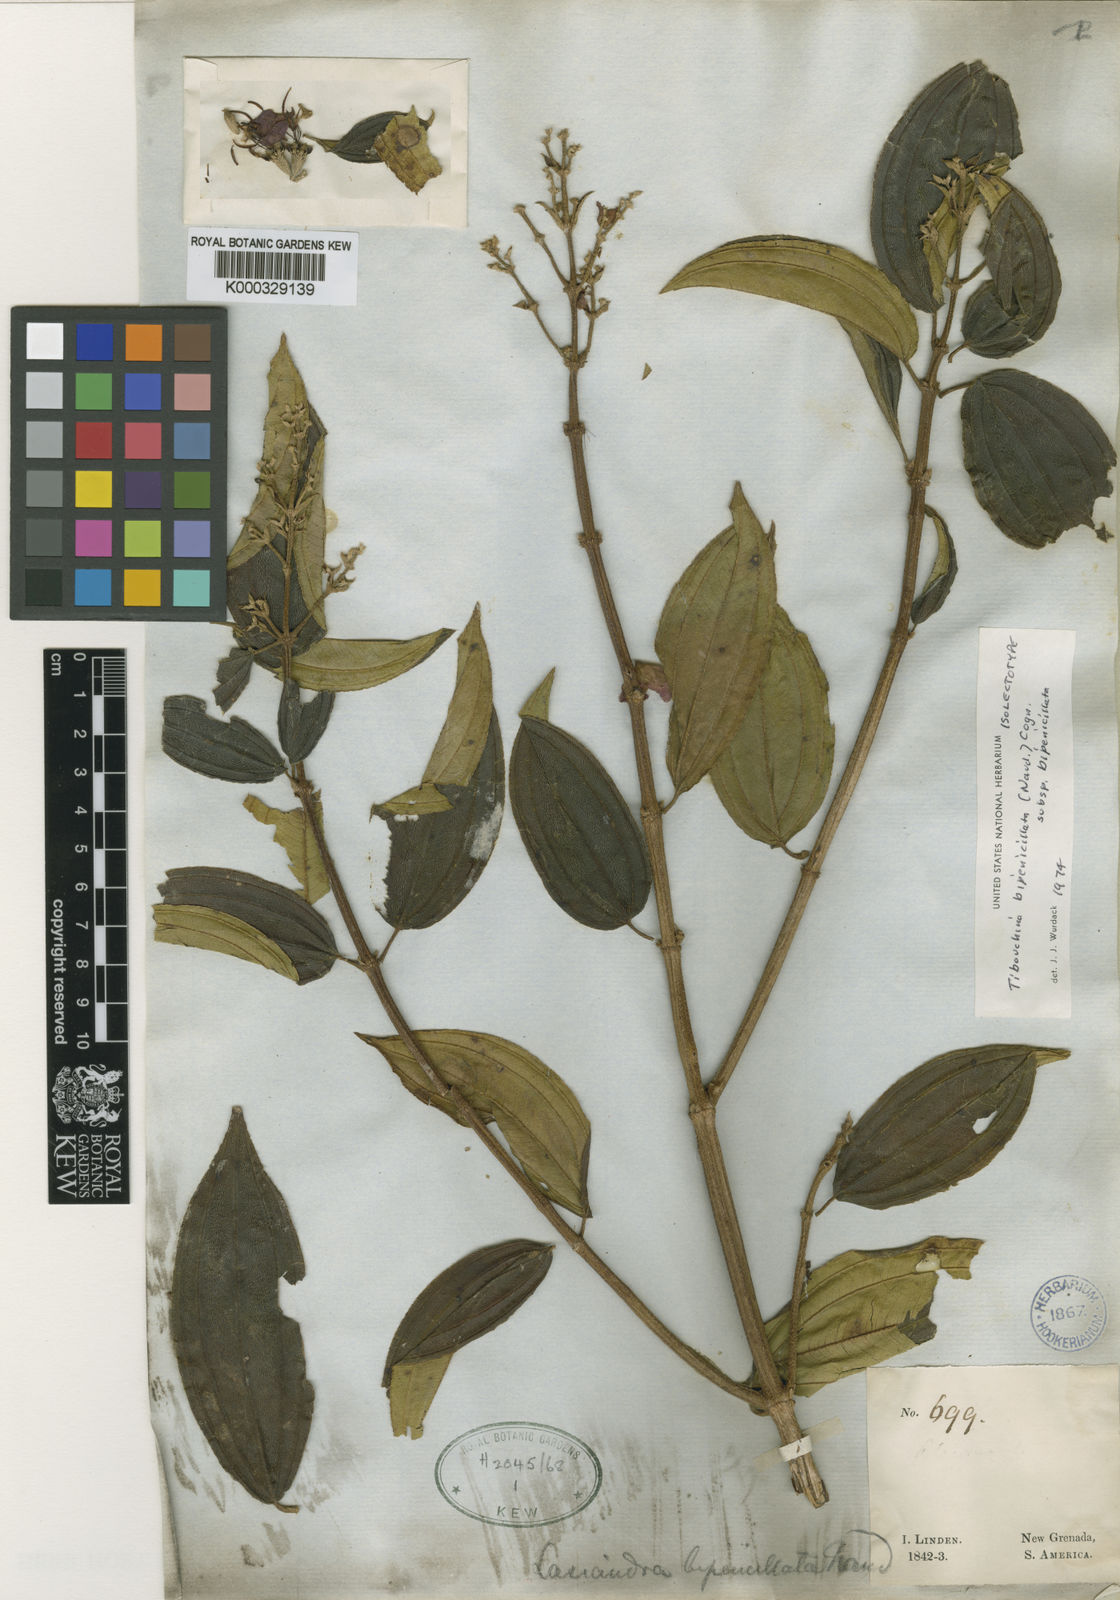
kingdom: Plantae
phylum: Tracheophyta
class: Magnoliopsida
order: Myrtales
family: Melastomataceae
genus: Pleroma
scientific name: Pleroma bipenicillatum
